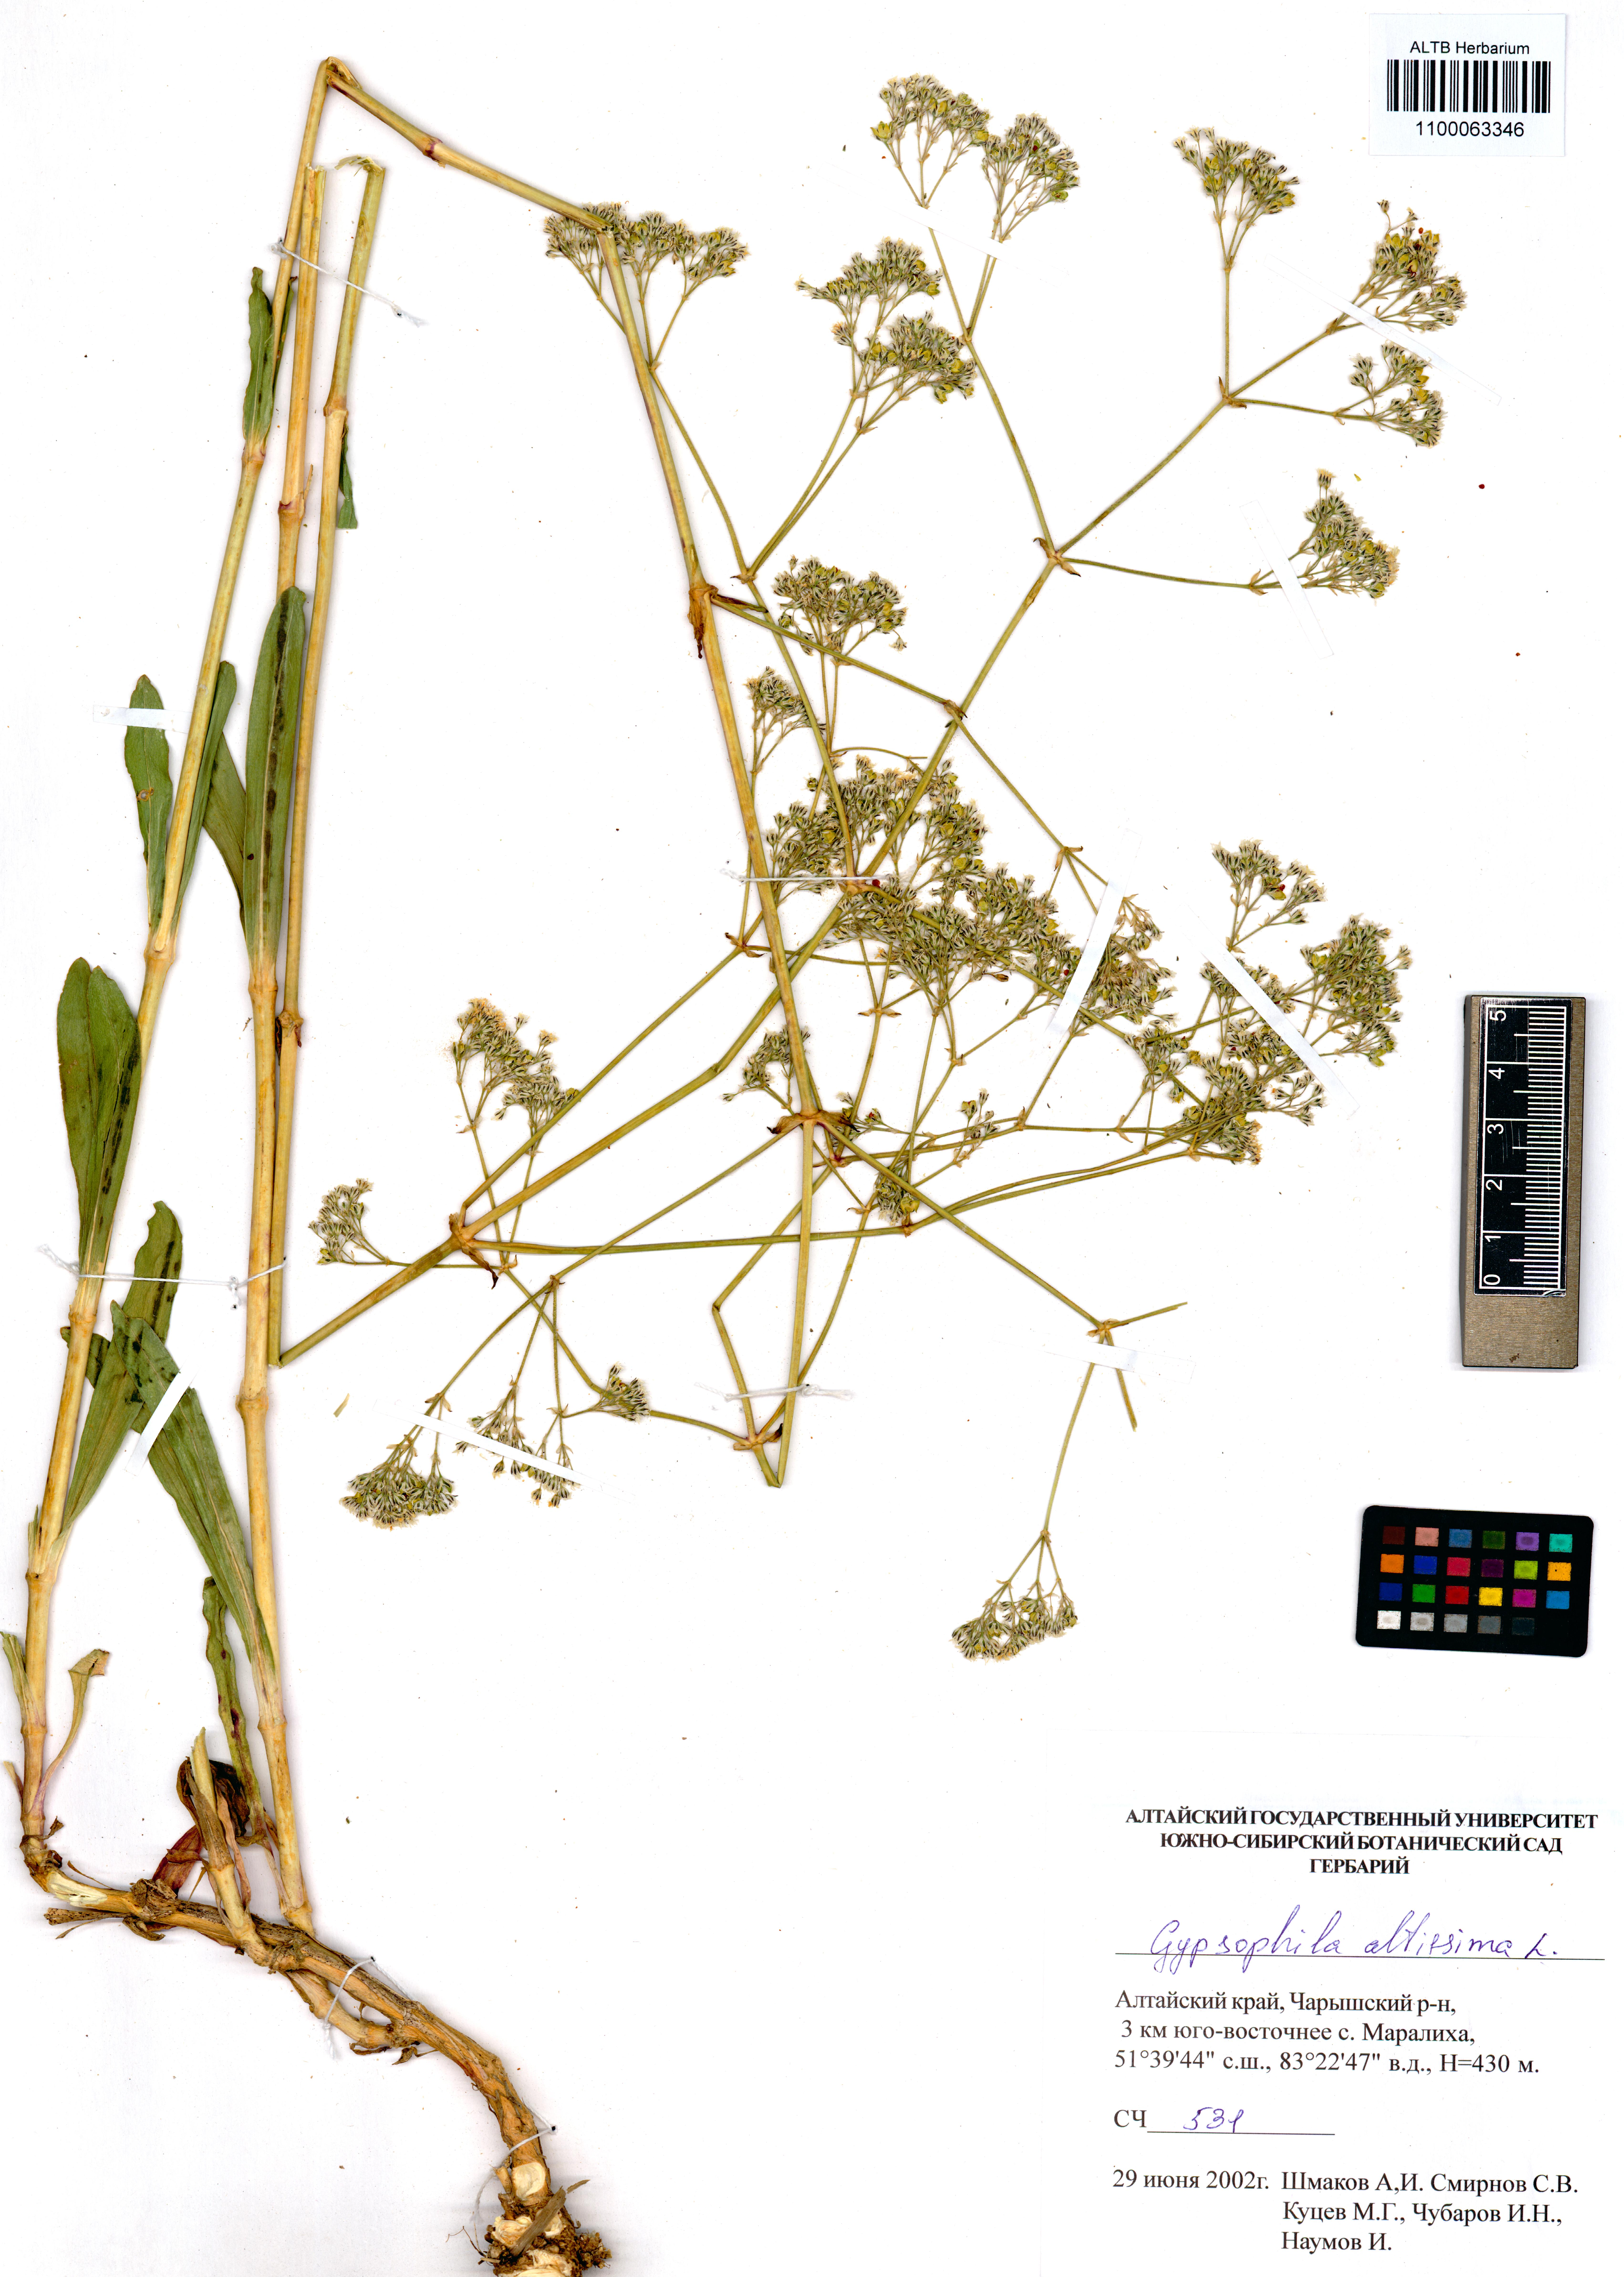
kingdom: Plantae
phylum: Tracheophyta
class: Magnoliopsida
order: Caryophyllales
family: Caryophyllaceae
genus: Gypsophila
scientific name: Gypsophila altissima
